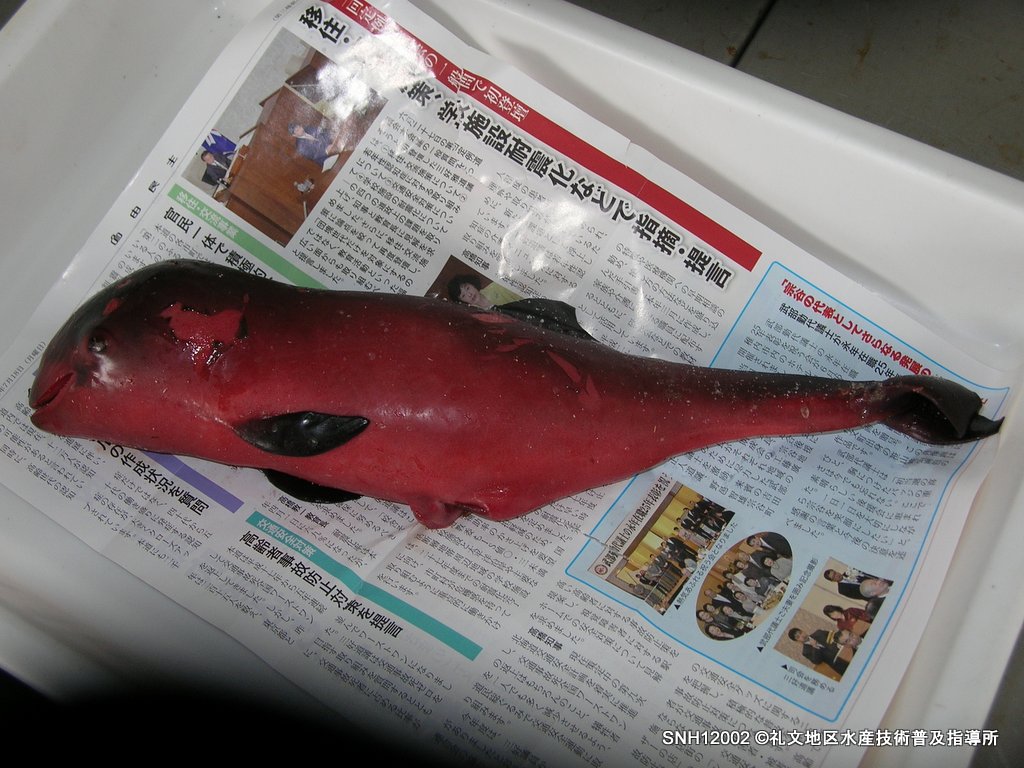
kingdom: Animalia
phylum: Chordata
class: Mammalia
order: Cetacea
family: Phocoenidae
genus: Phocoena
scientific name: Phocoena phocoena
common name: Harbour porpoise
